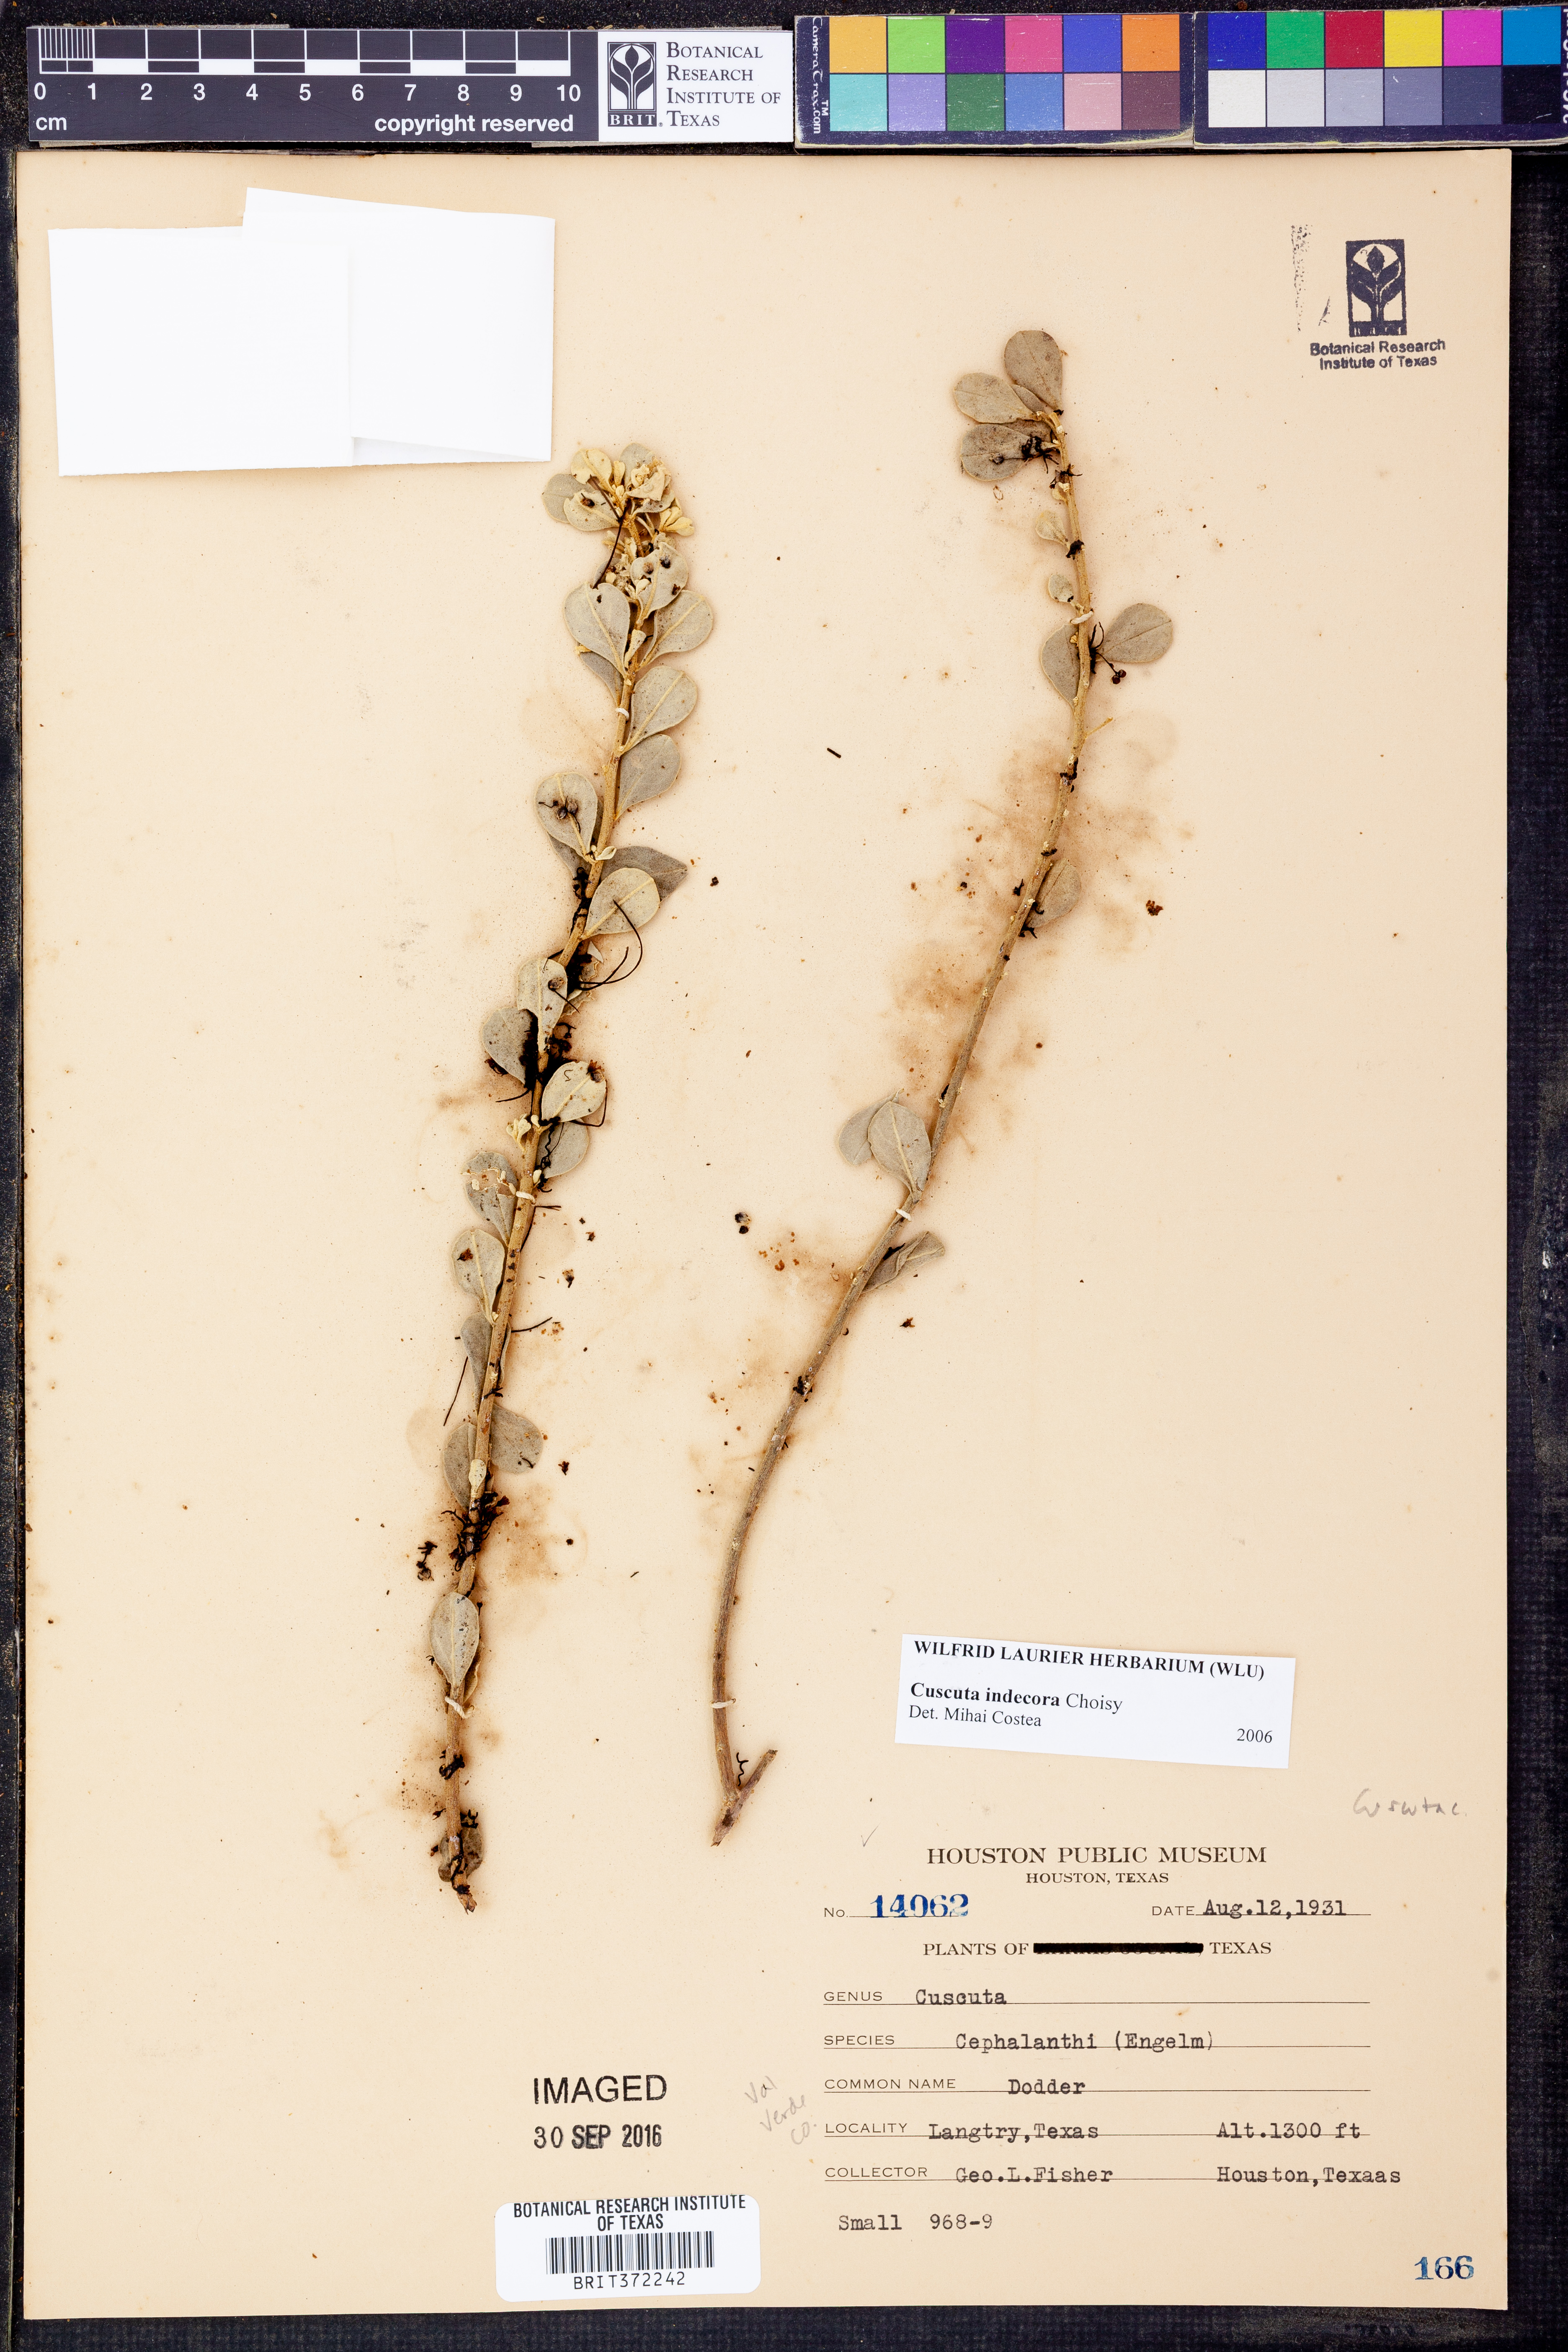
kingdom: Plantae
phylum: Tracheophyta
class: Magnoliopsida
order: Solanales
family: Convolvulaceae
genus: Cuscuta
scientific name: Cuscuta indecora
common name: Large-seed dodder
